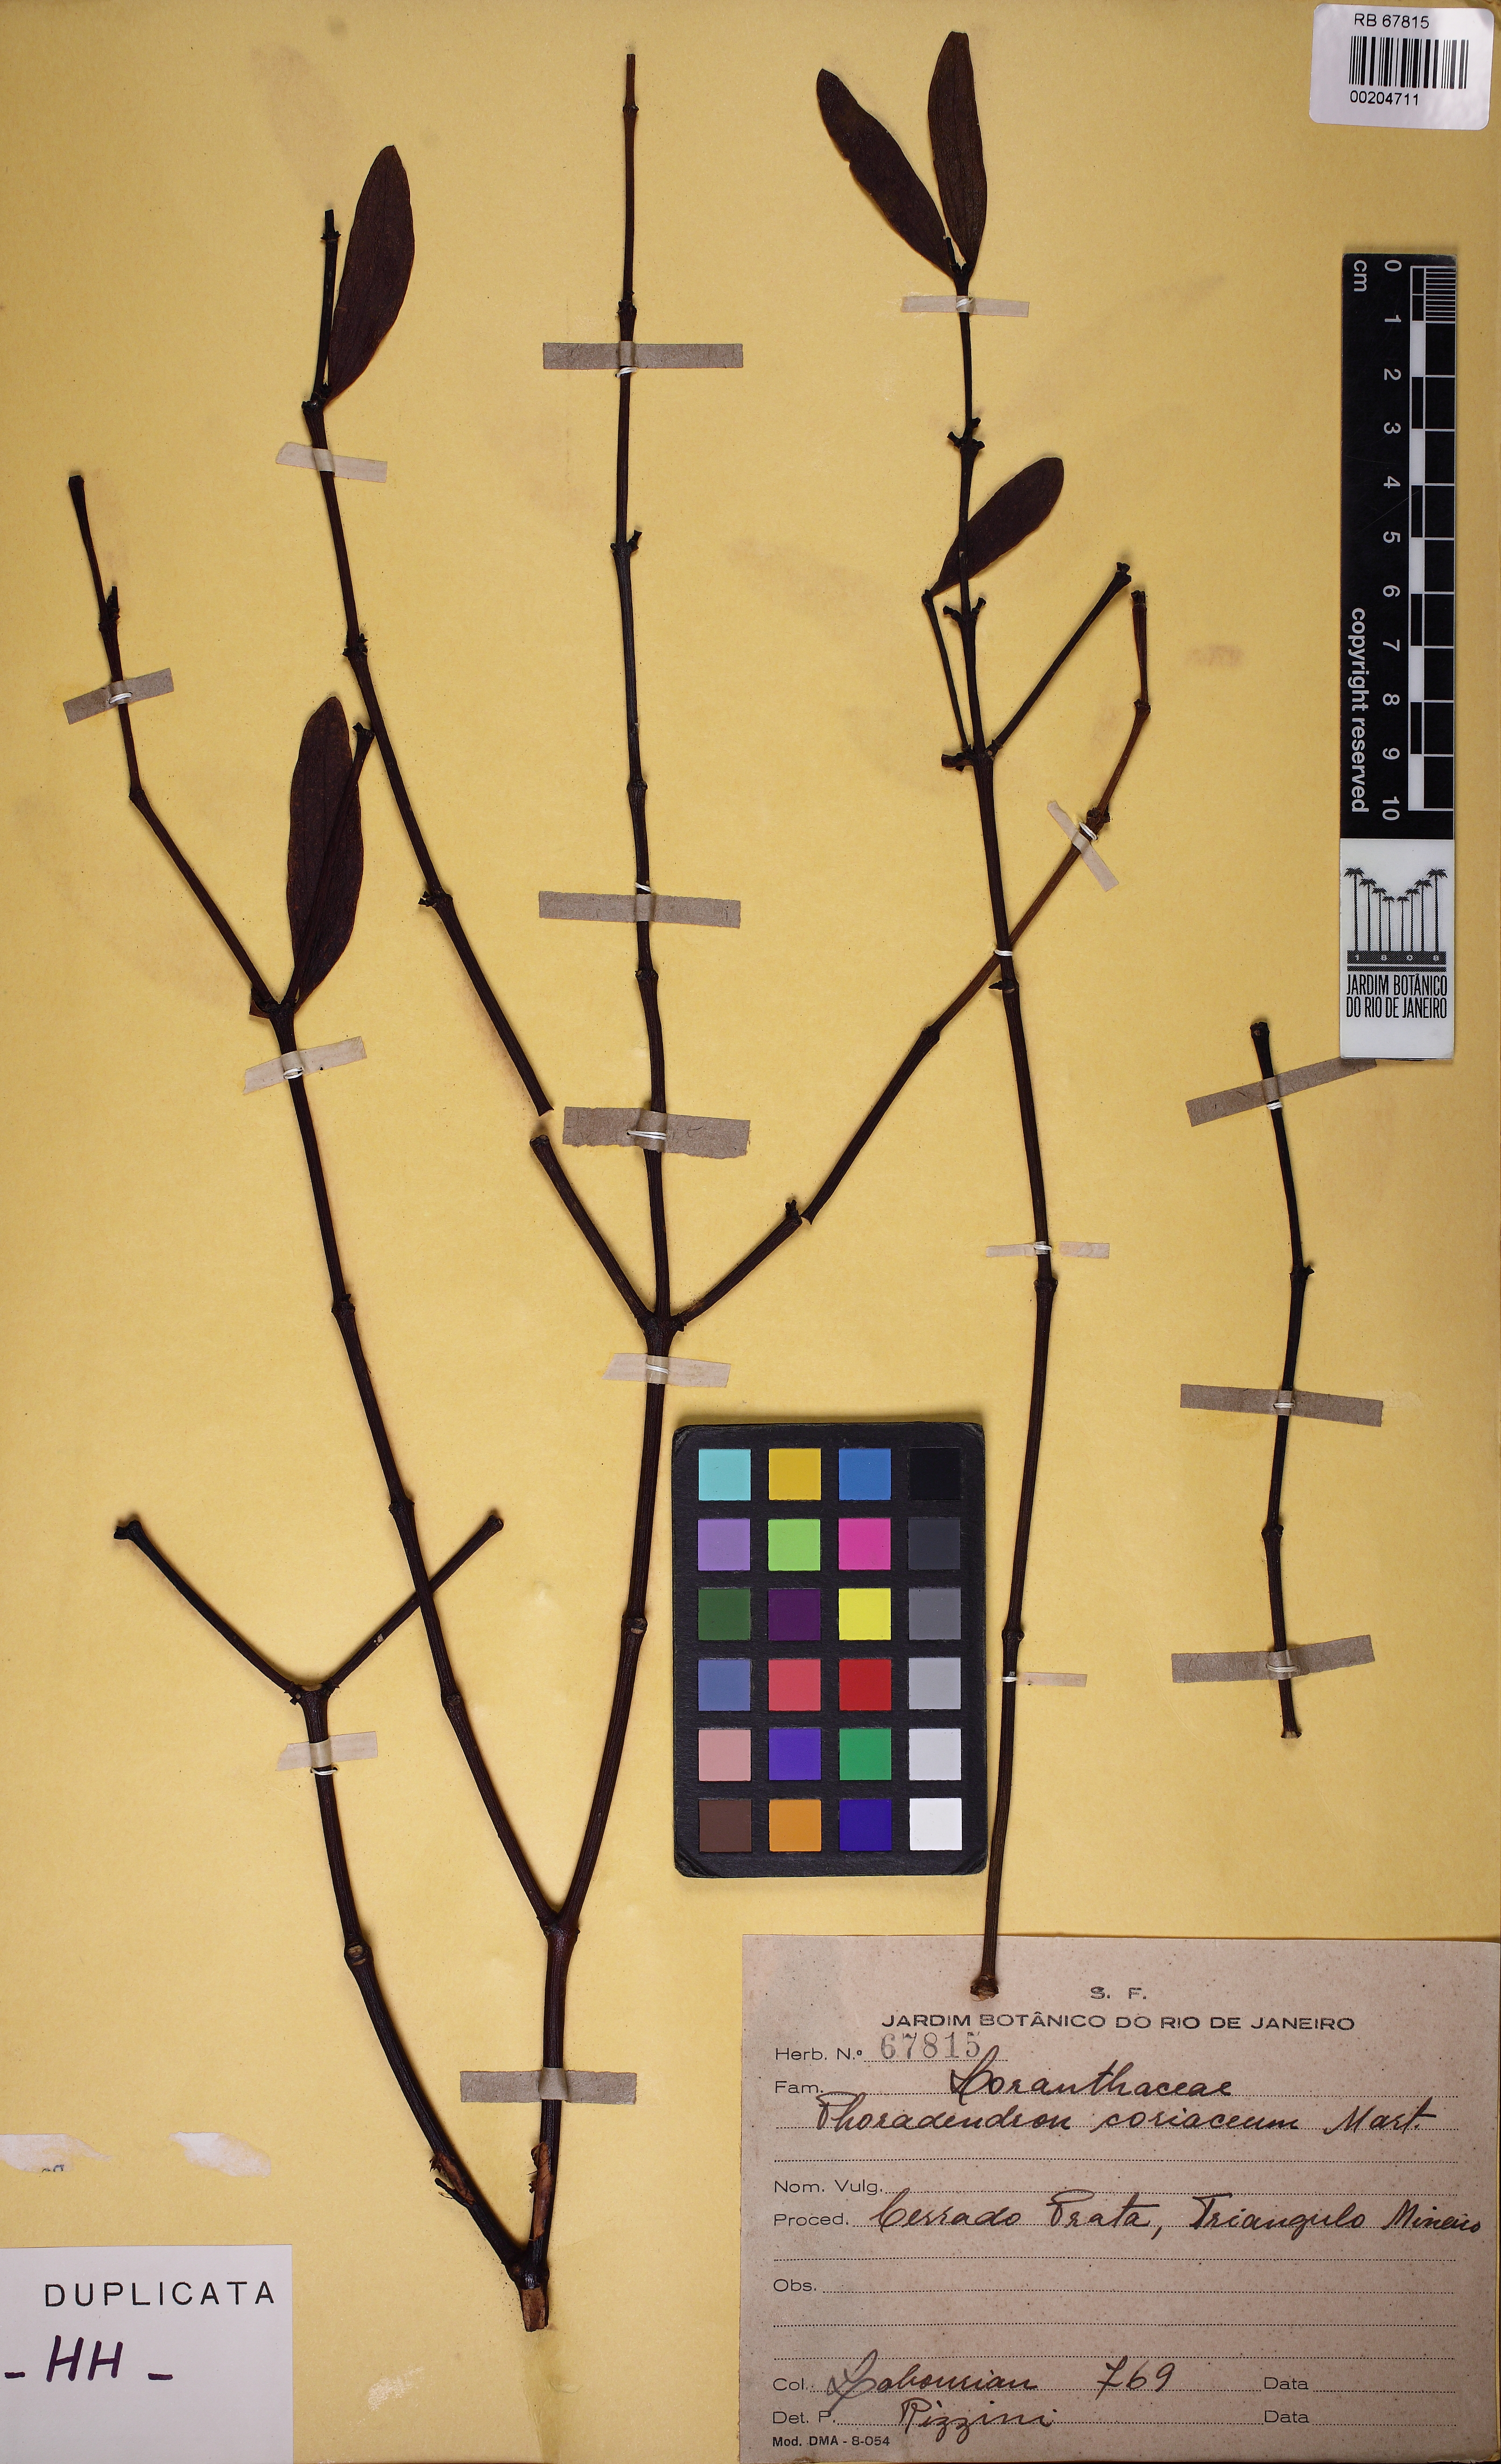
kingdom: Plantae
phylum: Tracheophyta
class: Magnoliopsida
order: Santalales
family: Viscaceae
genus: Phoradendron
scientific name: Phoradendron
